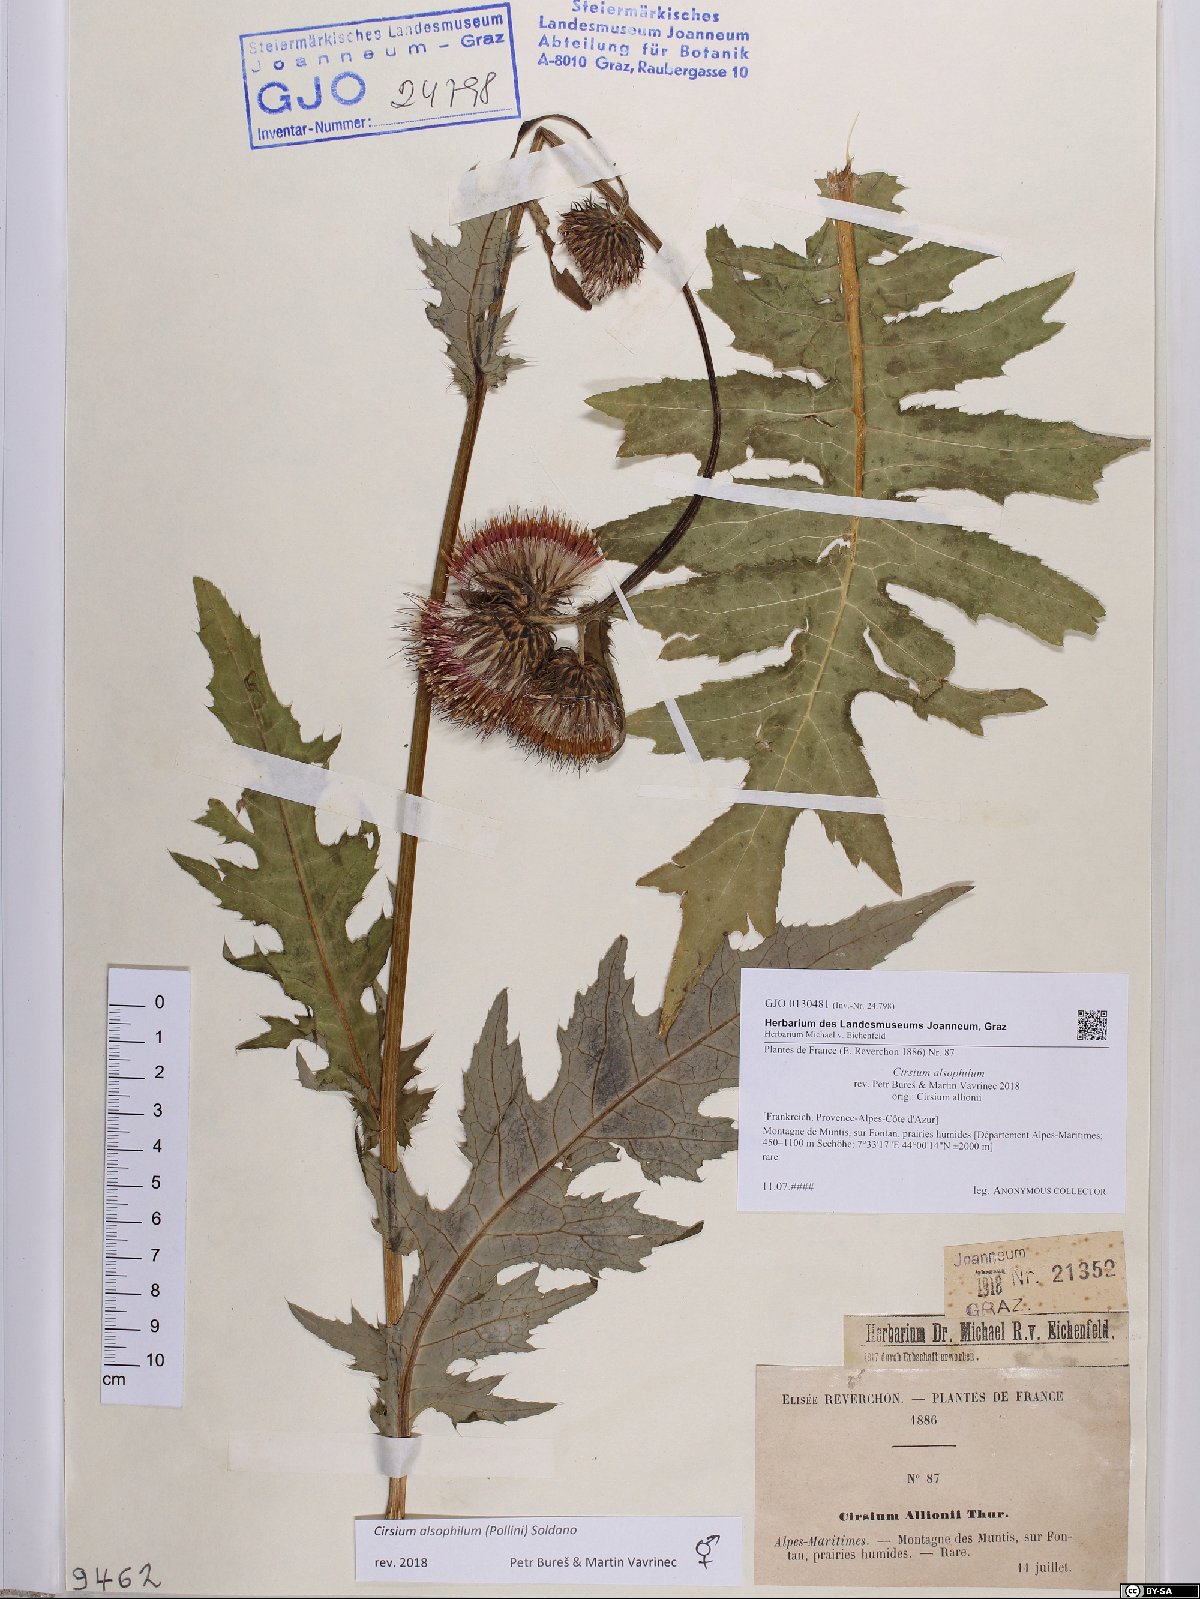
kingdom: Plantae
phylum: Tracheophyta
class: Magnoliopsida
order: Asterales
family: Asteraceae
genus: Cirsium
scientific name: Cirsium alsophilum
